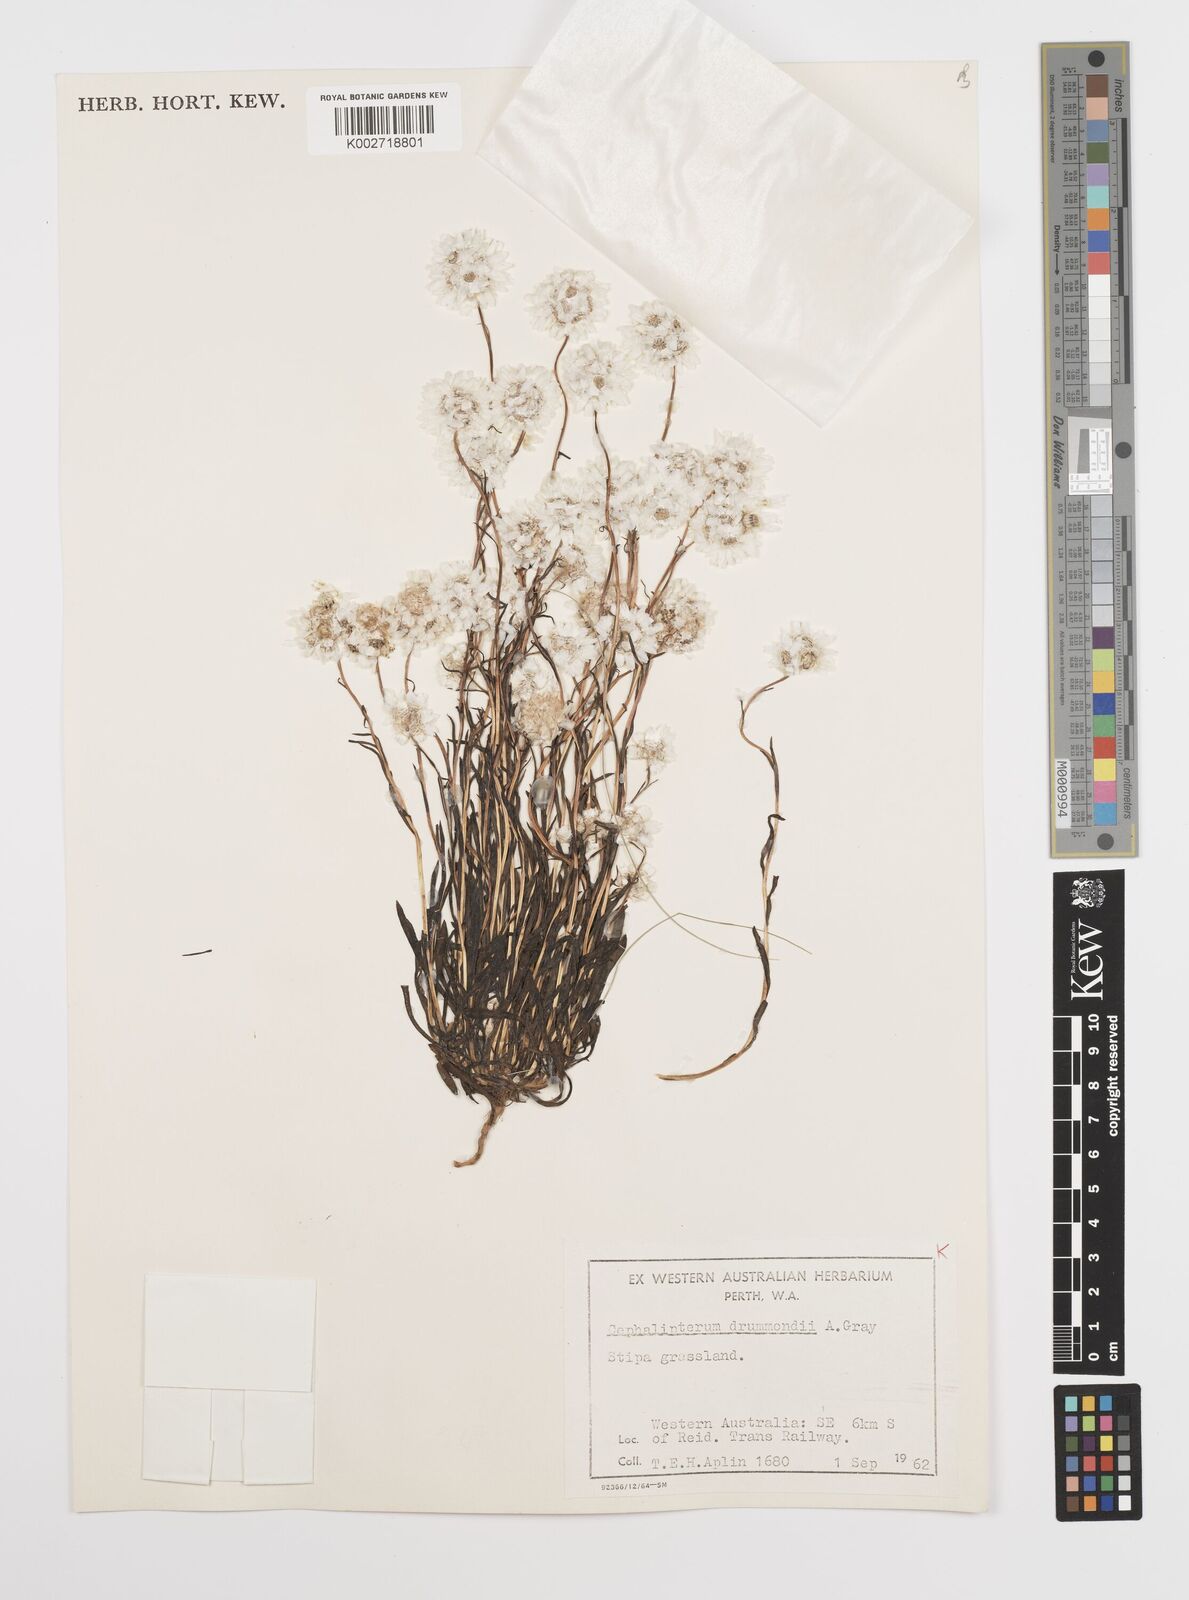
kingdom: Plantae
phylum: Tracheophyta
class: Magnoliopsida
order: Asterales
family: Asteraceae
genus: Cephalipterum
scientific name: Cephalipterum drummondii
